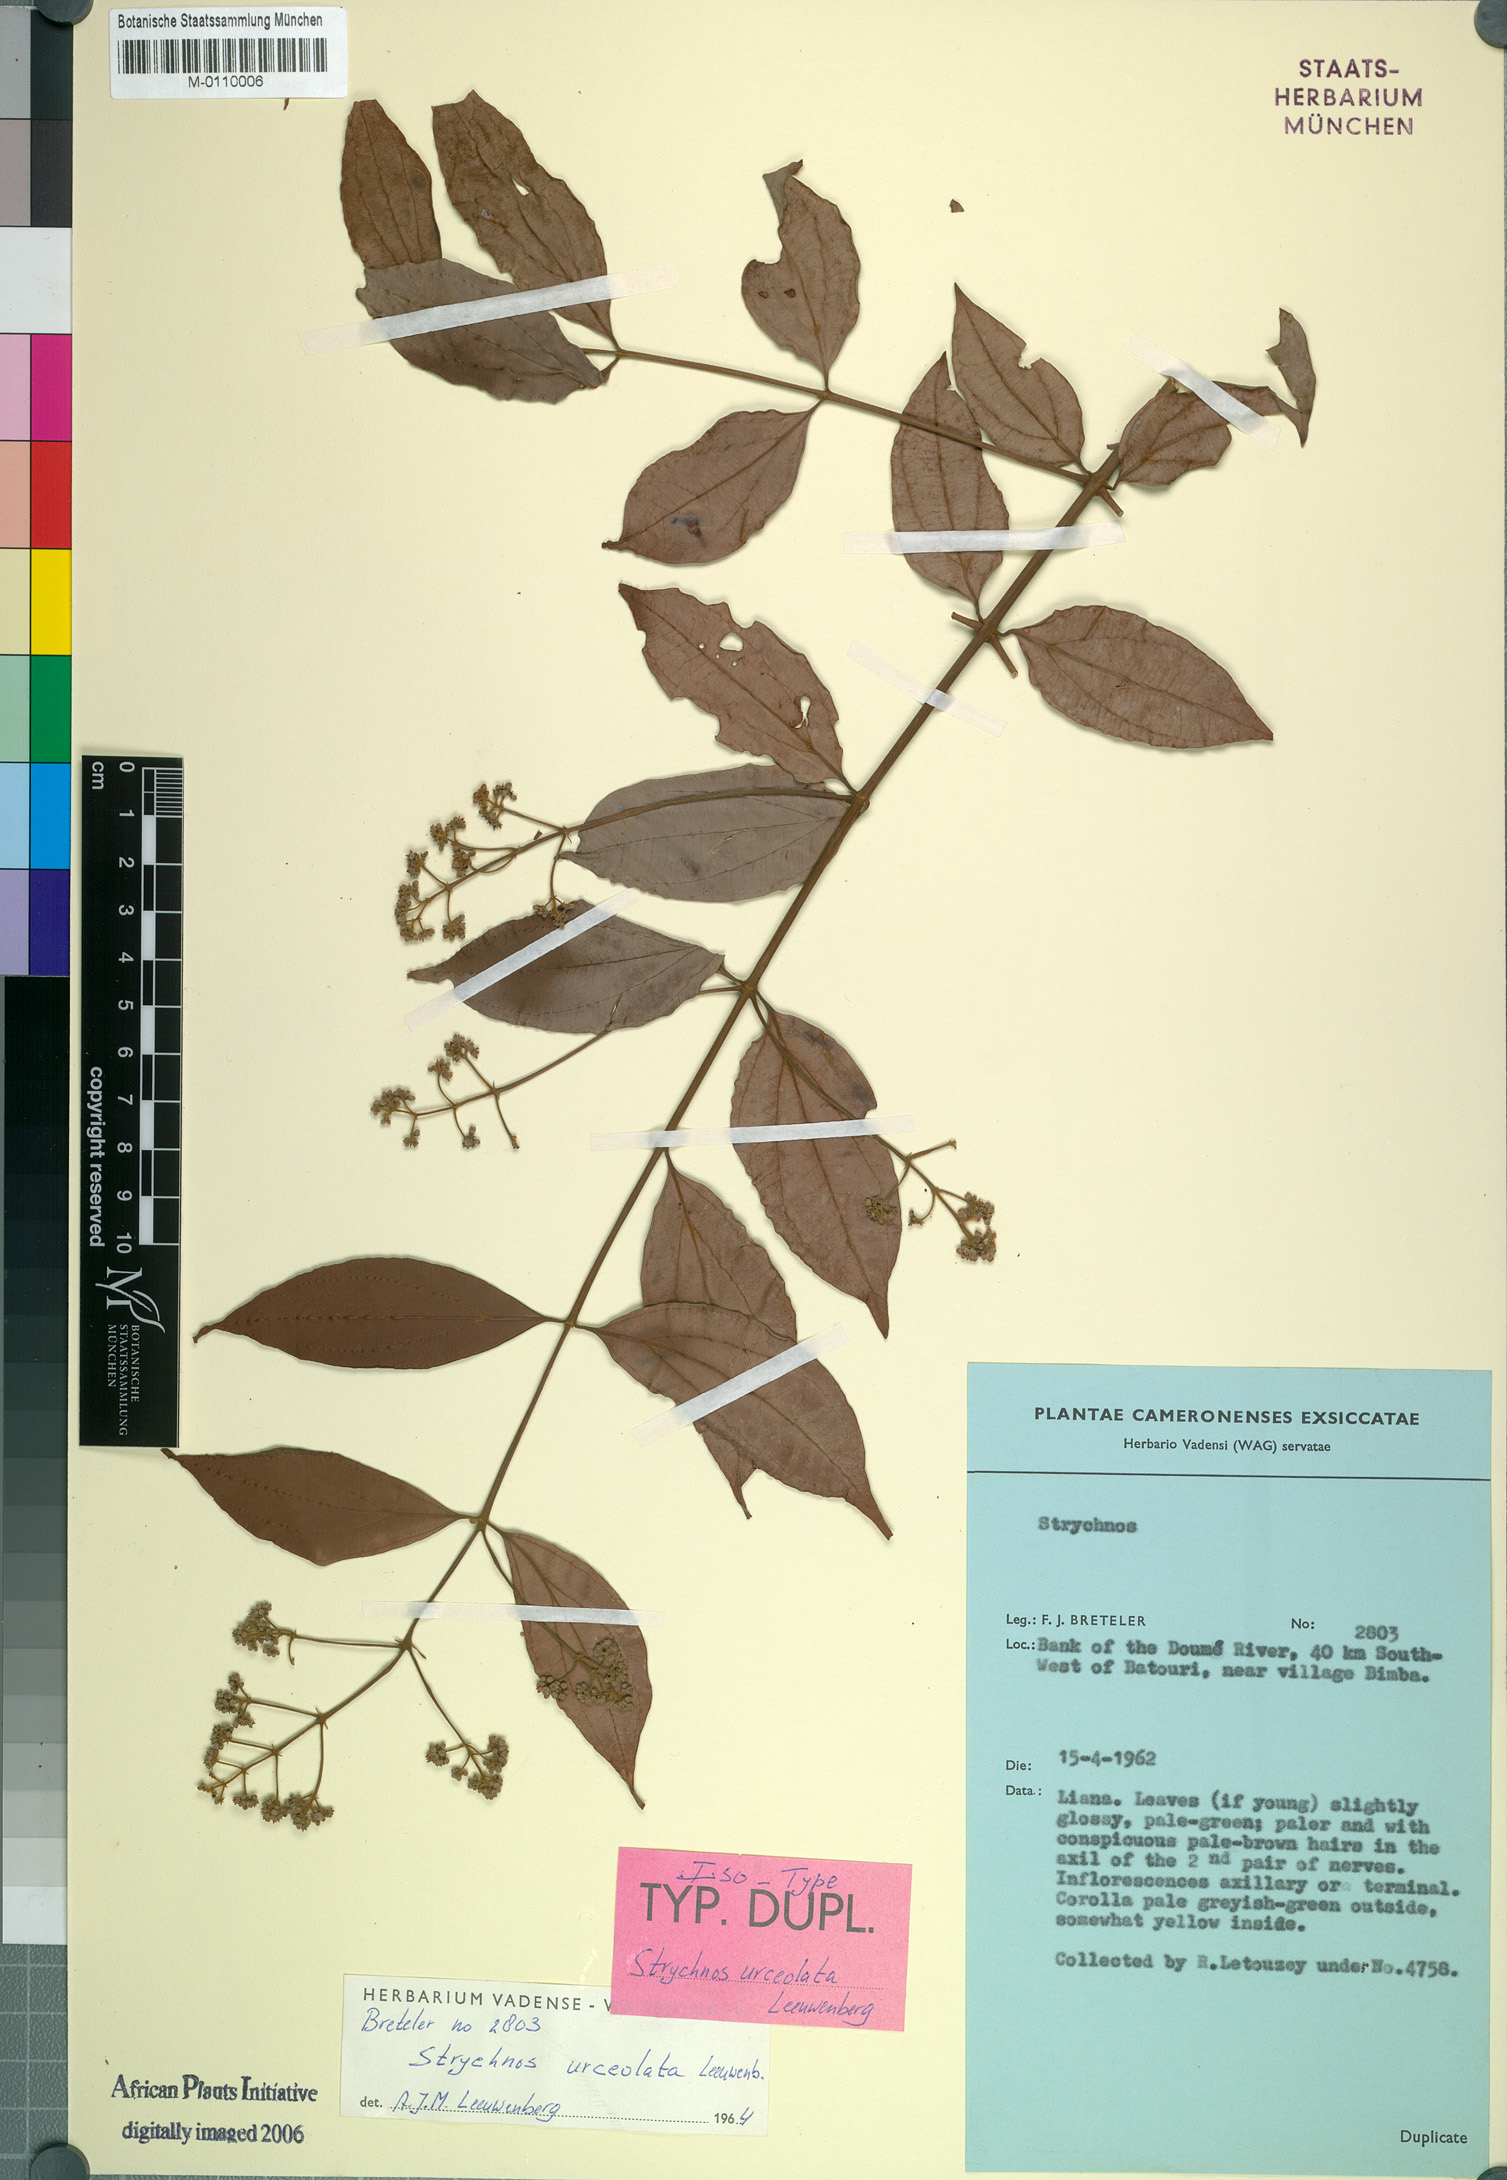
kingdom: Plantae
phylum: Tracheophyta
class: Magnoliopsida
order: Gentianales
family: Loganiaceae
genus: Strychnos
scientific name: Strychnos urceolata
